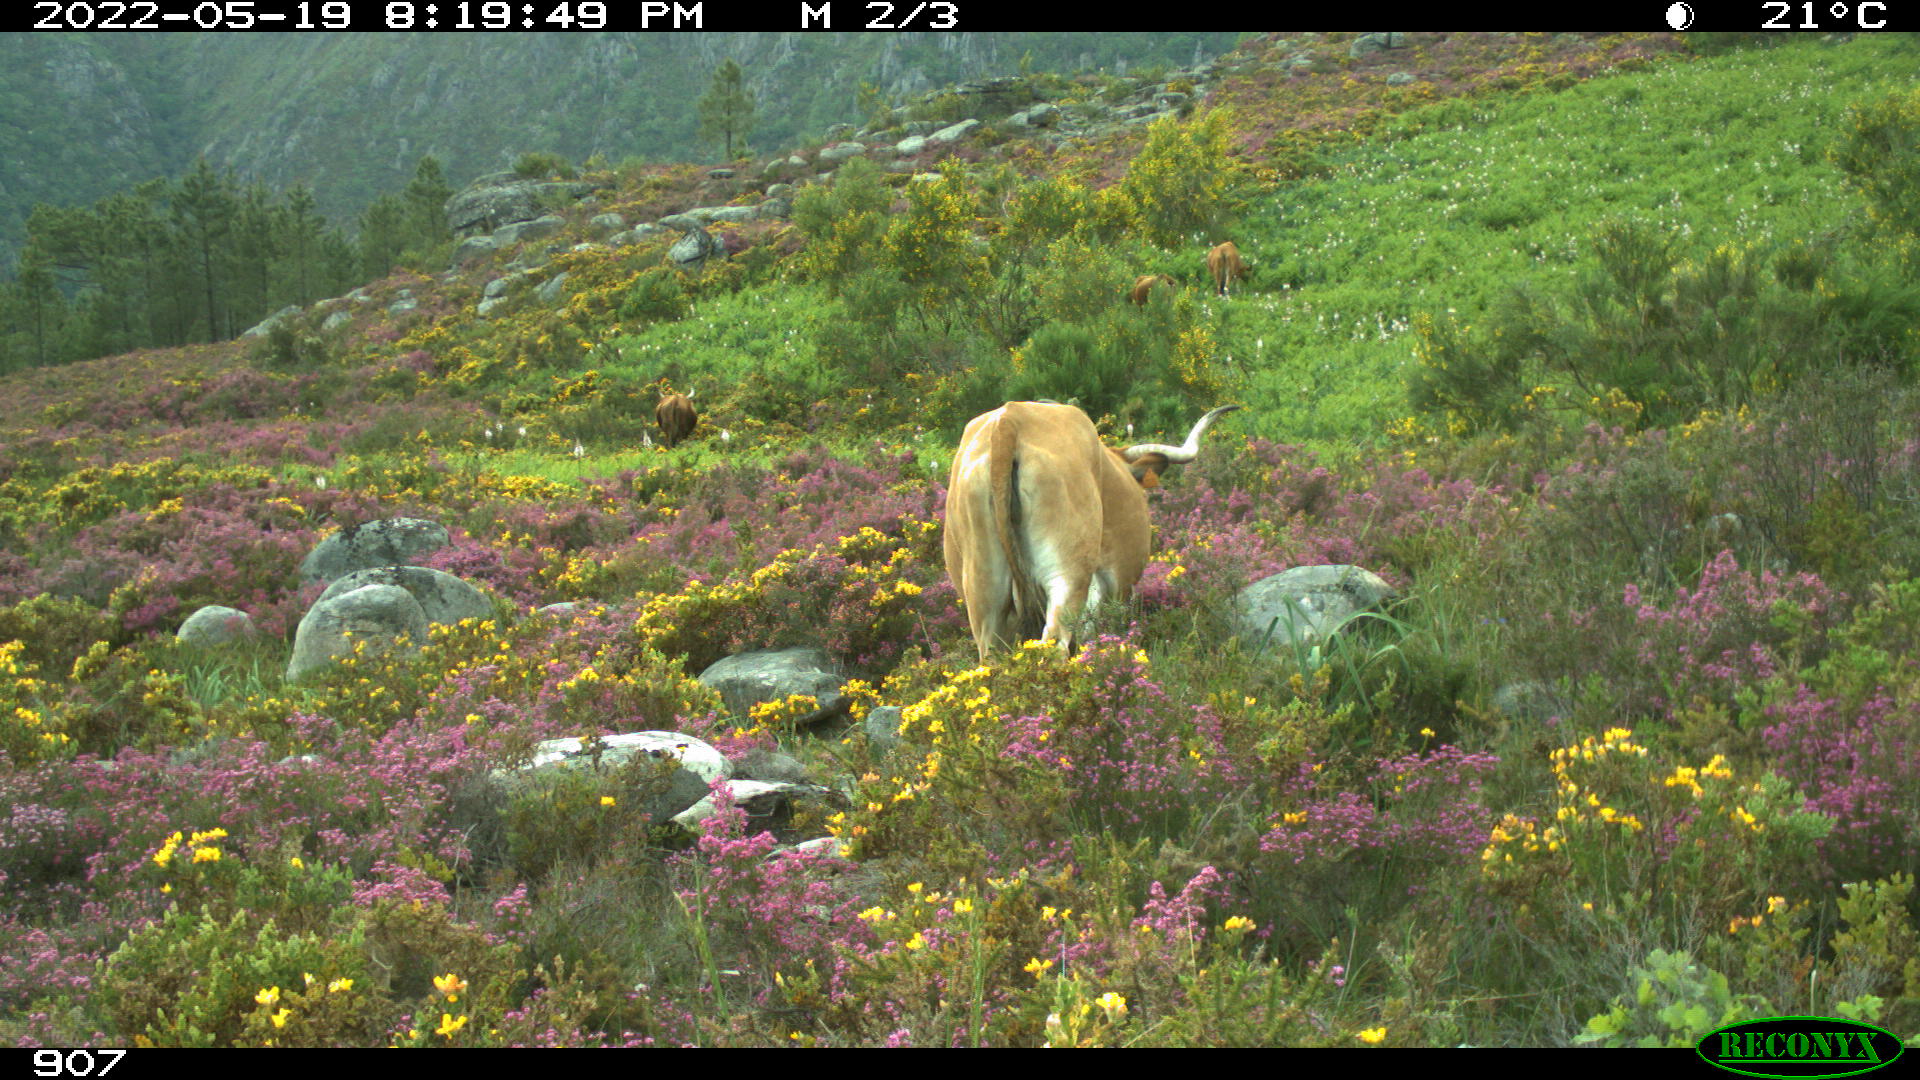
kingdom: Animalia
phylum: Chordata
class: Mammalia
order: Artiodactyla
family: Bovidae
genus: Bos
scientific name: Bos taurus
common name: Domesticated cattle
